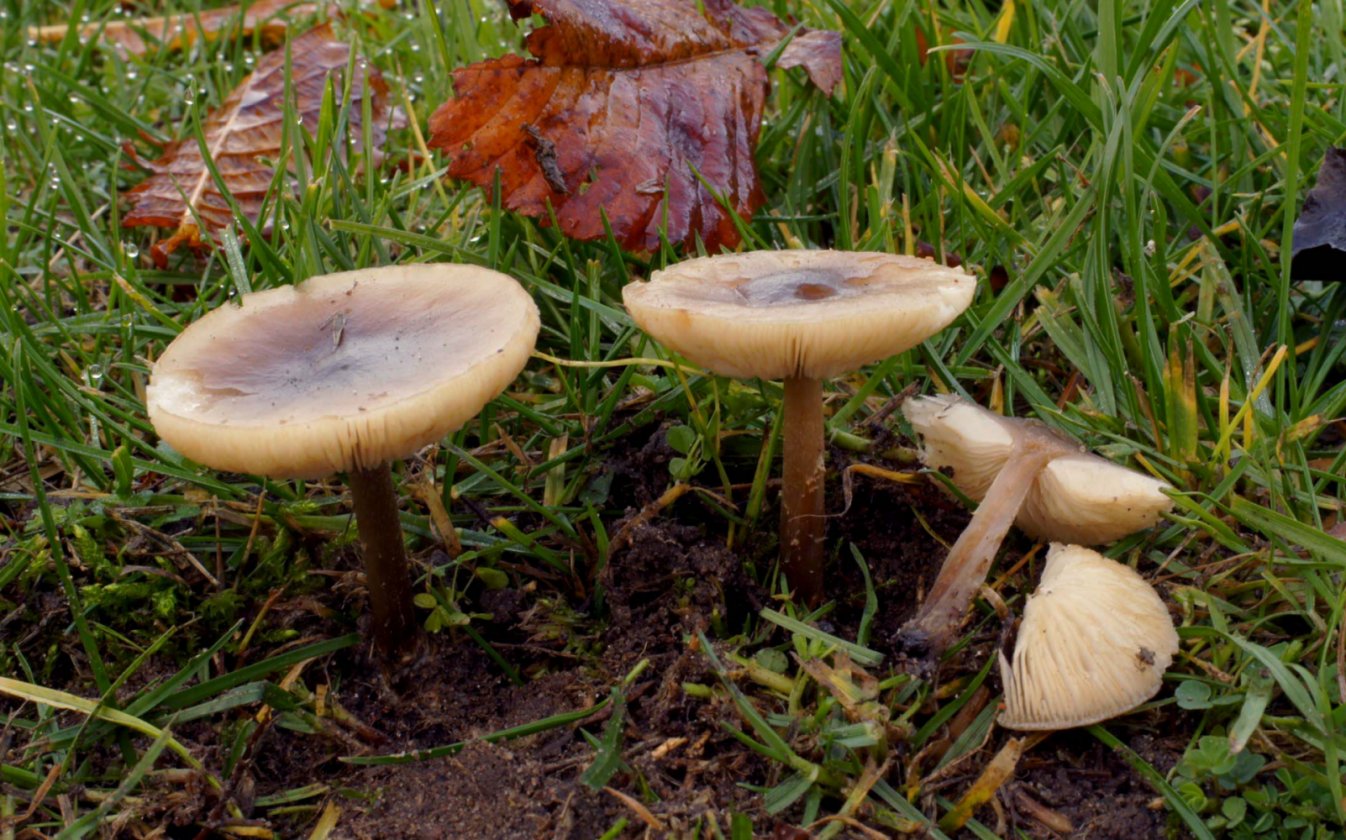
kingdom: Fungi
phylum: Basidiomycota
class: Agaricomycetes
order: Agaricales
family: Tricholomataceae
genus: Melanoleuca
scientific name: Melanoleuca polioleuca
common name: almindelig munkehat
